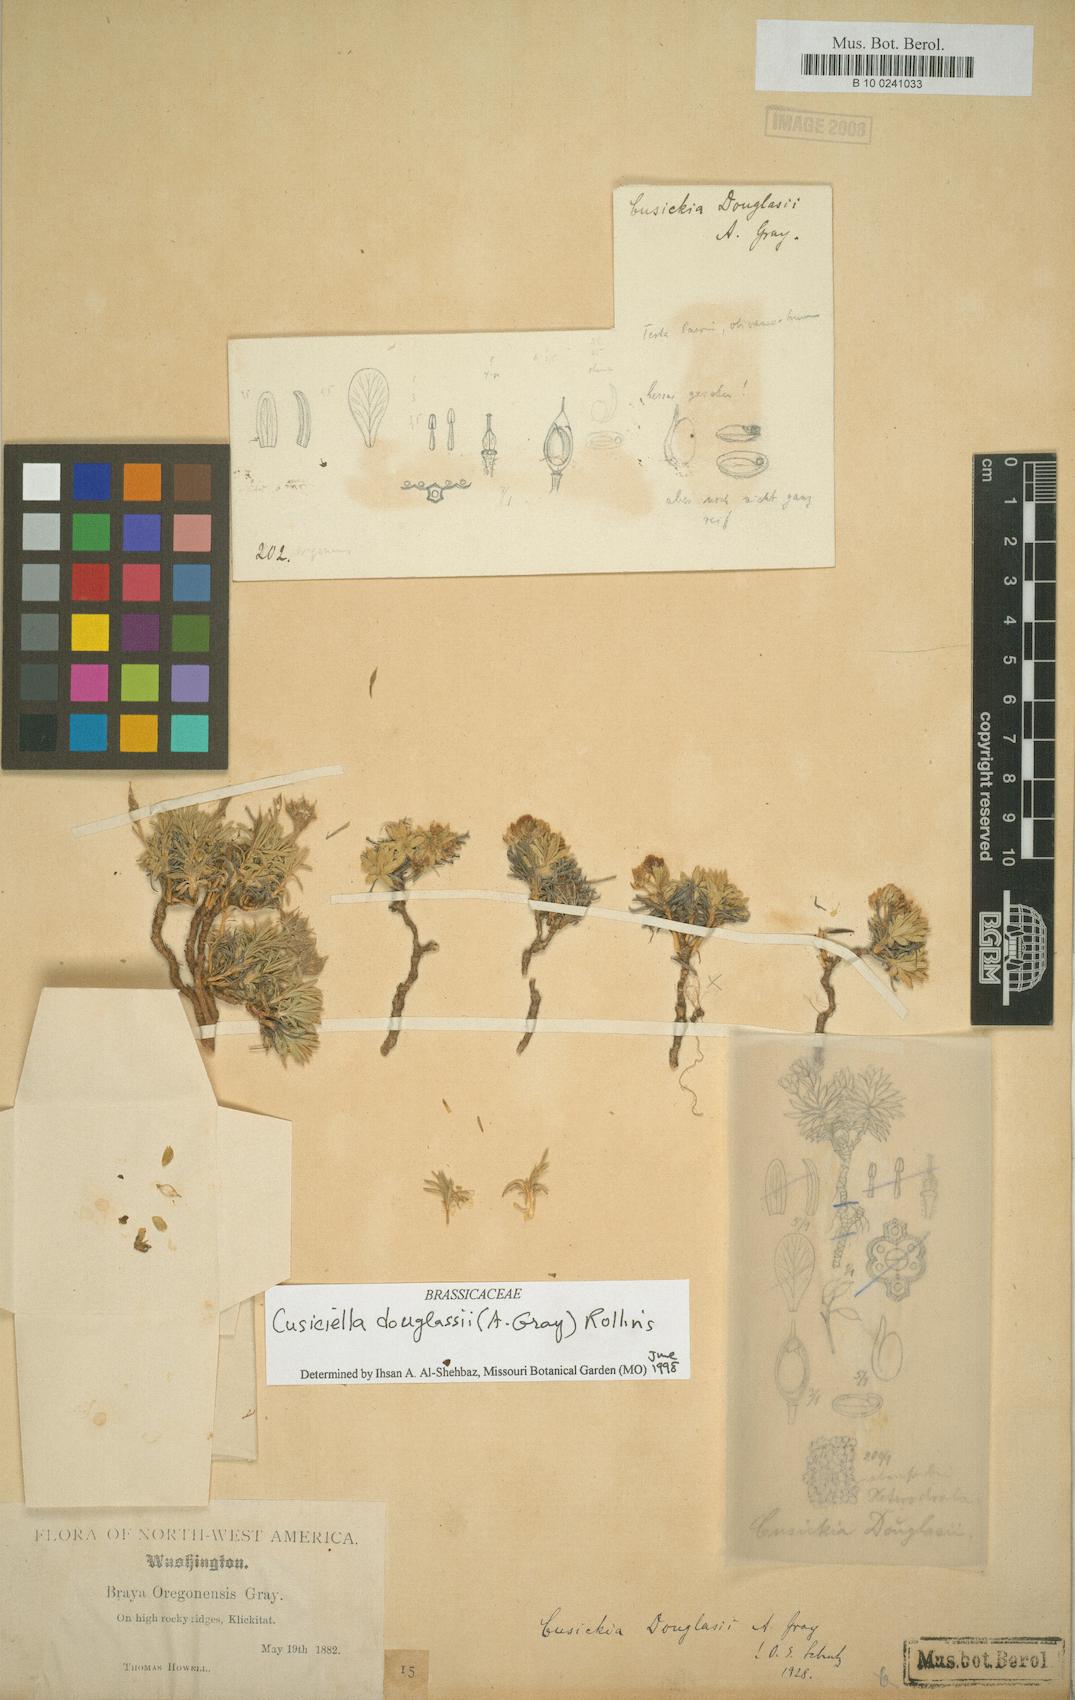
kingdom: Plantae
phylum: Tracheophyta
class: Magnoliopsida
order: Brassicales
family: Brassicaceae
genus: Cusickiella
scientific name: Cusickiella douglasii
